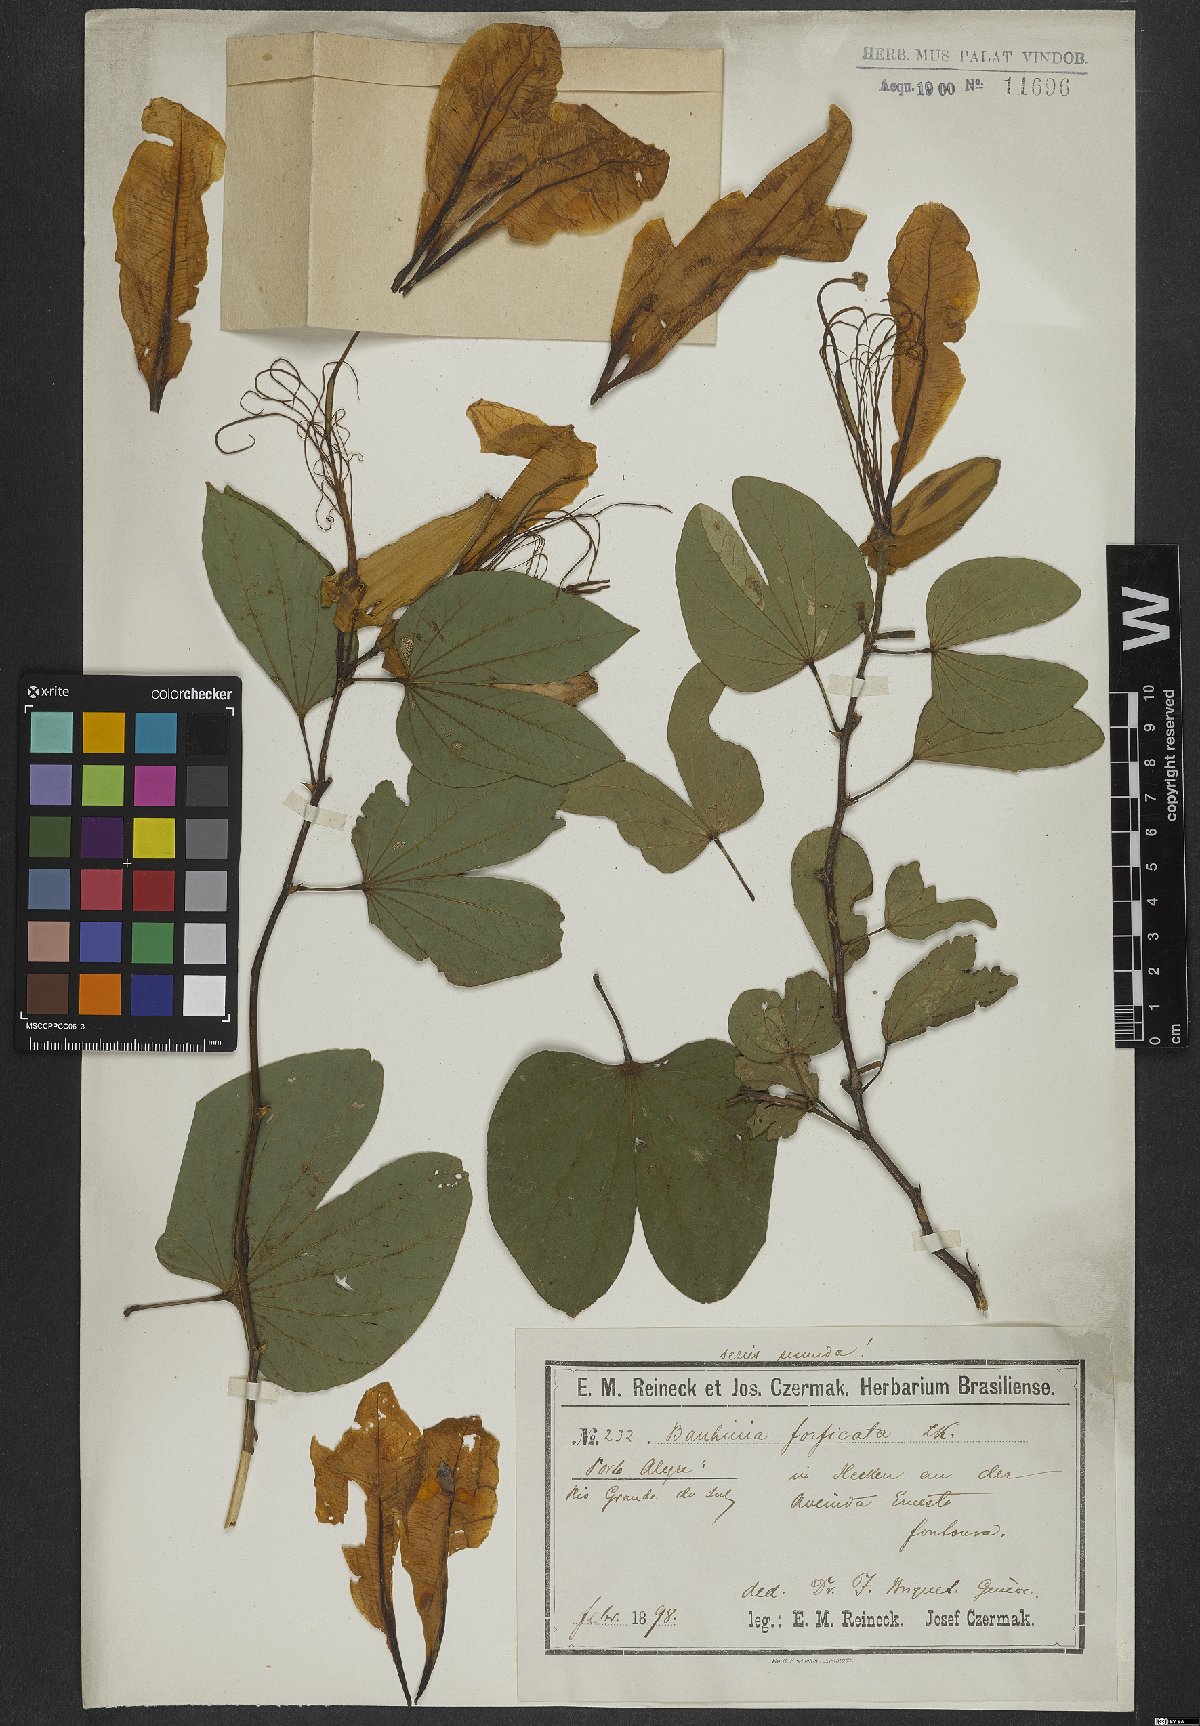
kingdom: Plantae
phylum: Tracheophyta
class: Magnoliopsida
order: Fabales
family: Fabaceae
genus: Bauhinia
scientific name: Bauhinia forficata
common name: Orchid tree
